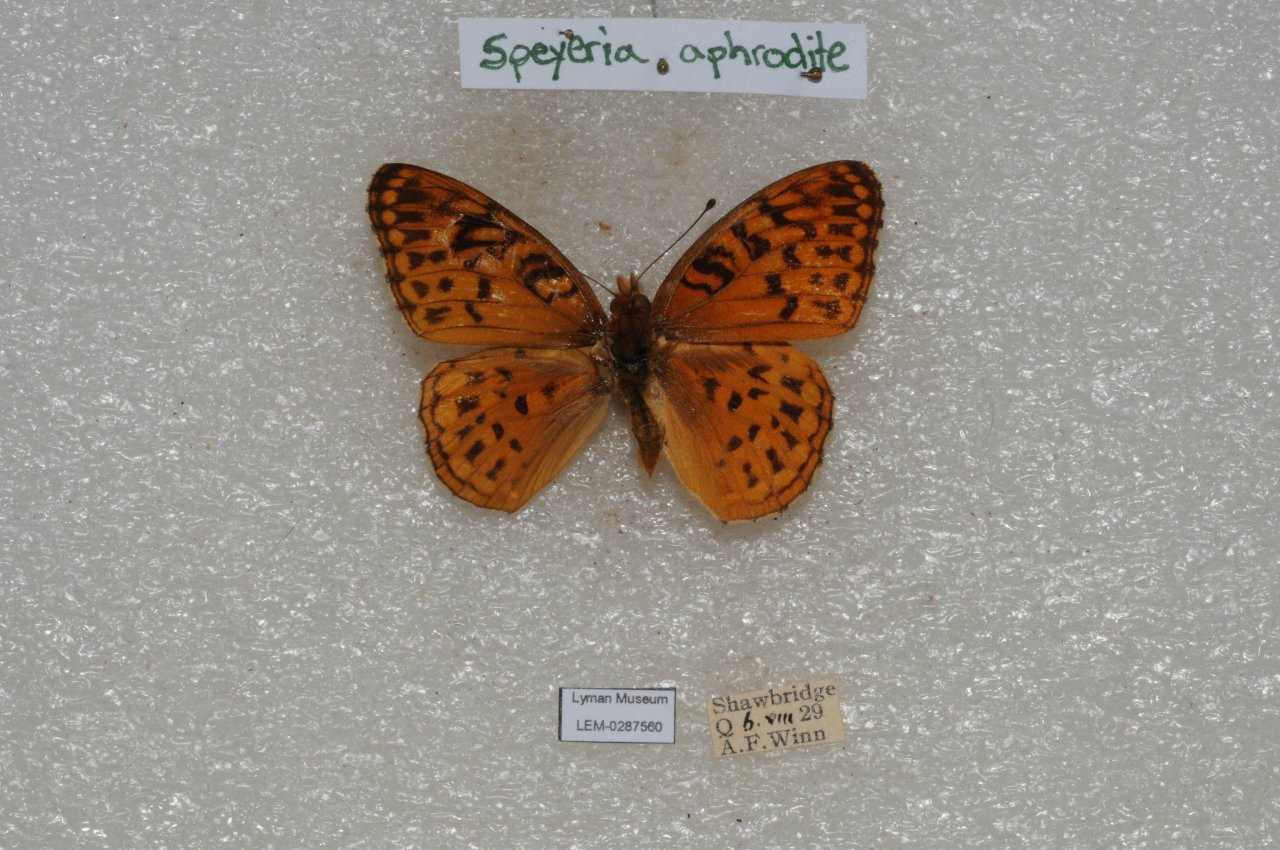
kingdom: Animalia
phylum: Arthropoda
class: Insecta
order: Lepidoptera
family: Nymphalidae
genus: Speyeria
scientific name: Speyeria aphrodite
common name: Aphrodite Fritillary
